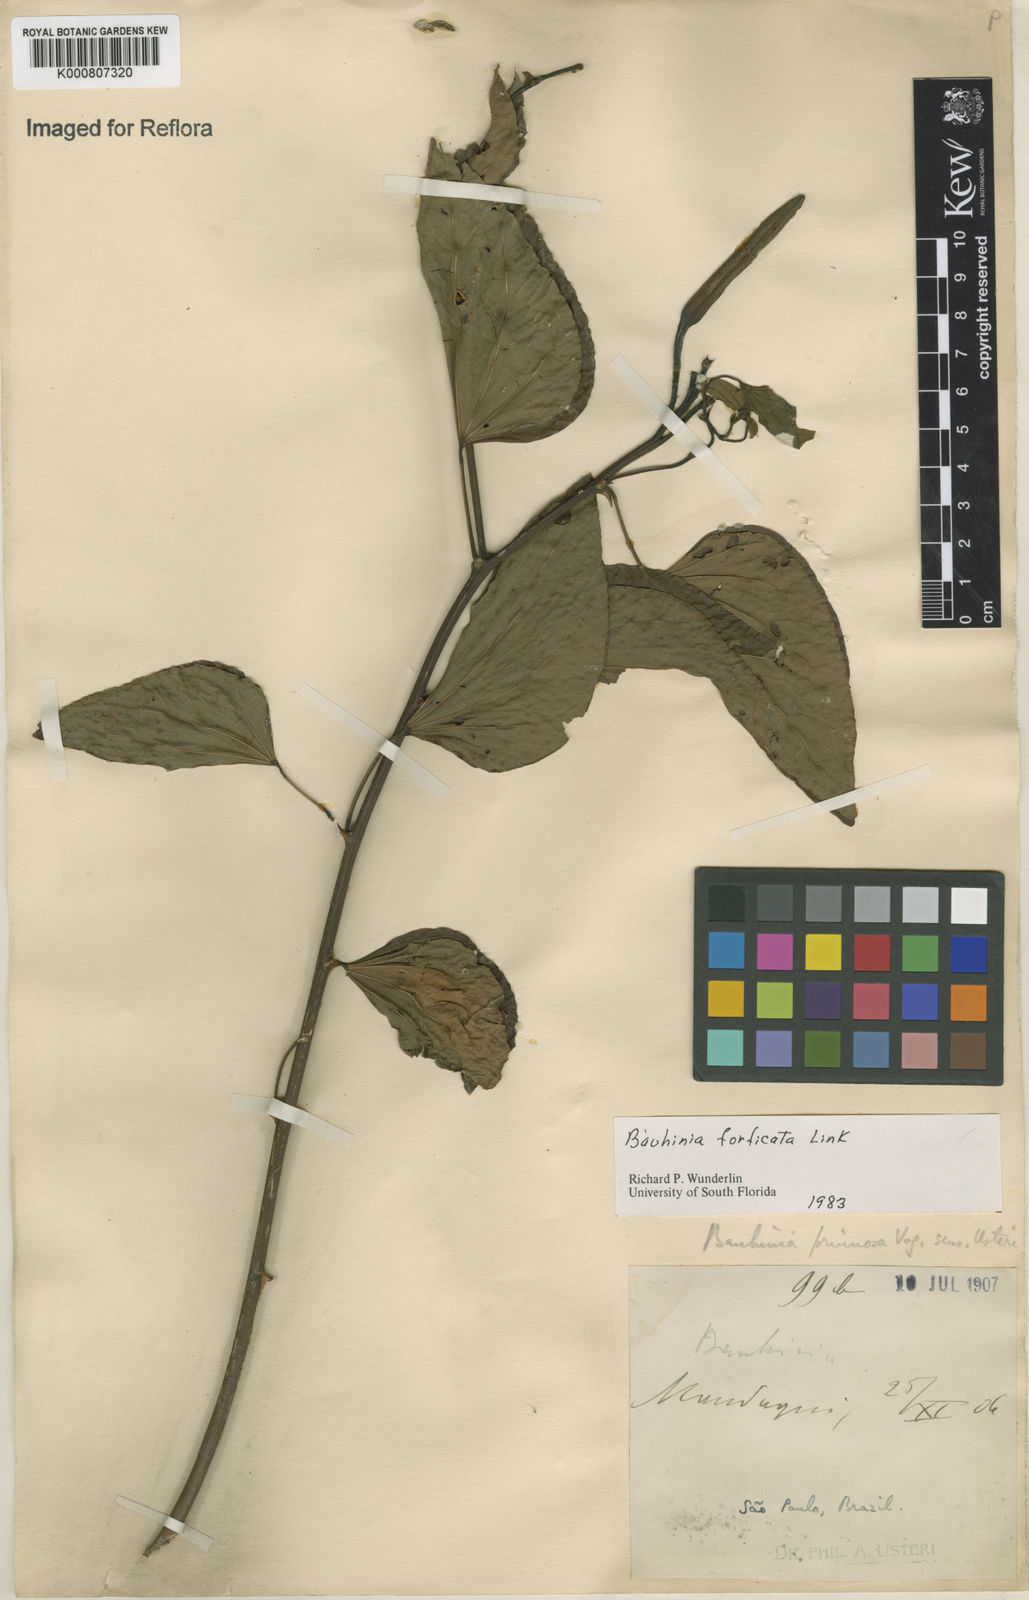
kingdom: Plantae
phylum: Tracheophyta
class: Magnoliopsida
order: Fabales
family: Fabaceae
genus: Bauhinia
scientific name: Bauhinia forficata
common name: Orchid tree
